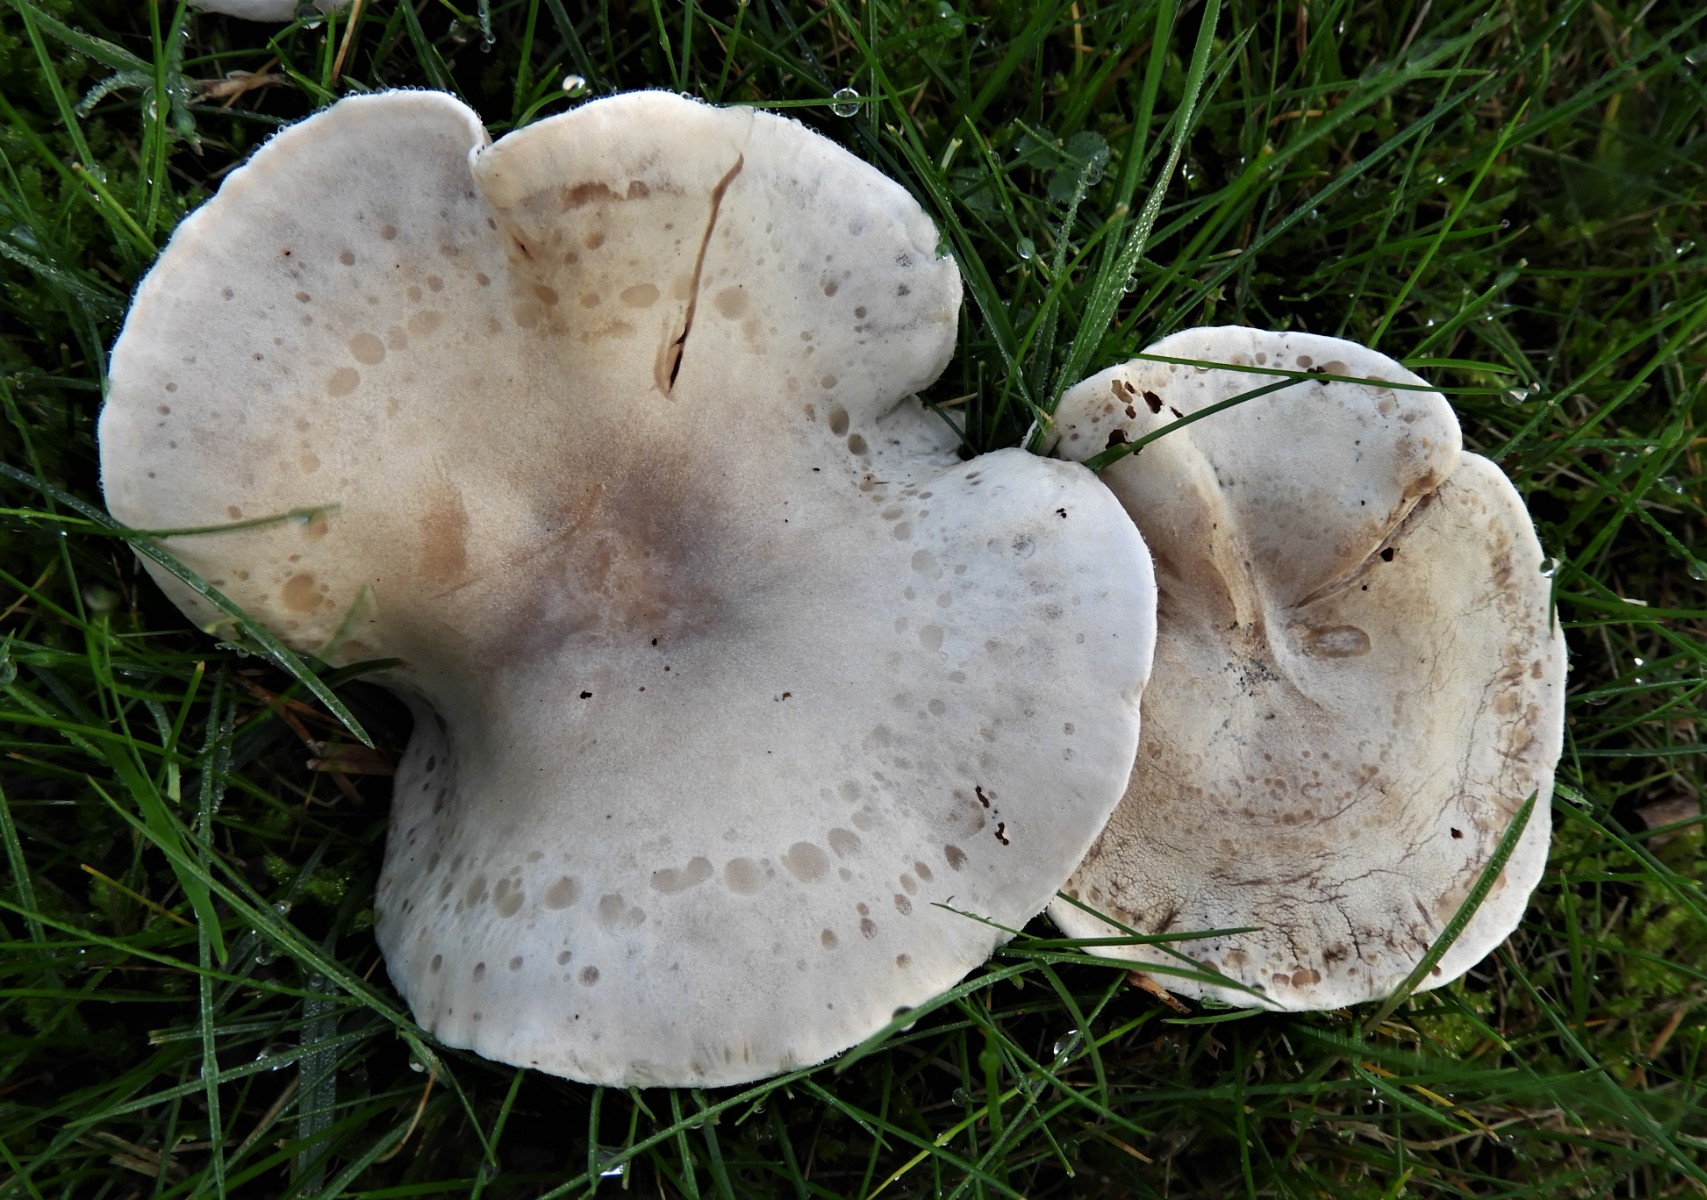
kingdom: Fungi
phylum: Basidiomycota
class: Agaricomycetes
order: Agaricales
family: Tricholomataceae
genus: Lepista
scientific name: Lepista panaeolus
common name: marmoreret hekseringshat
